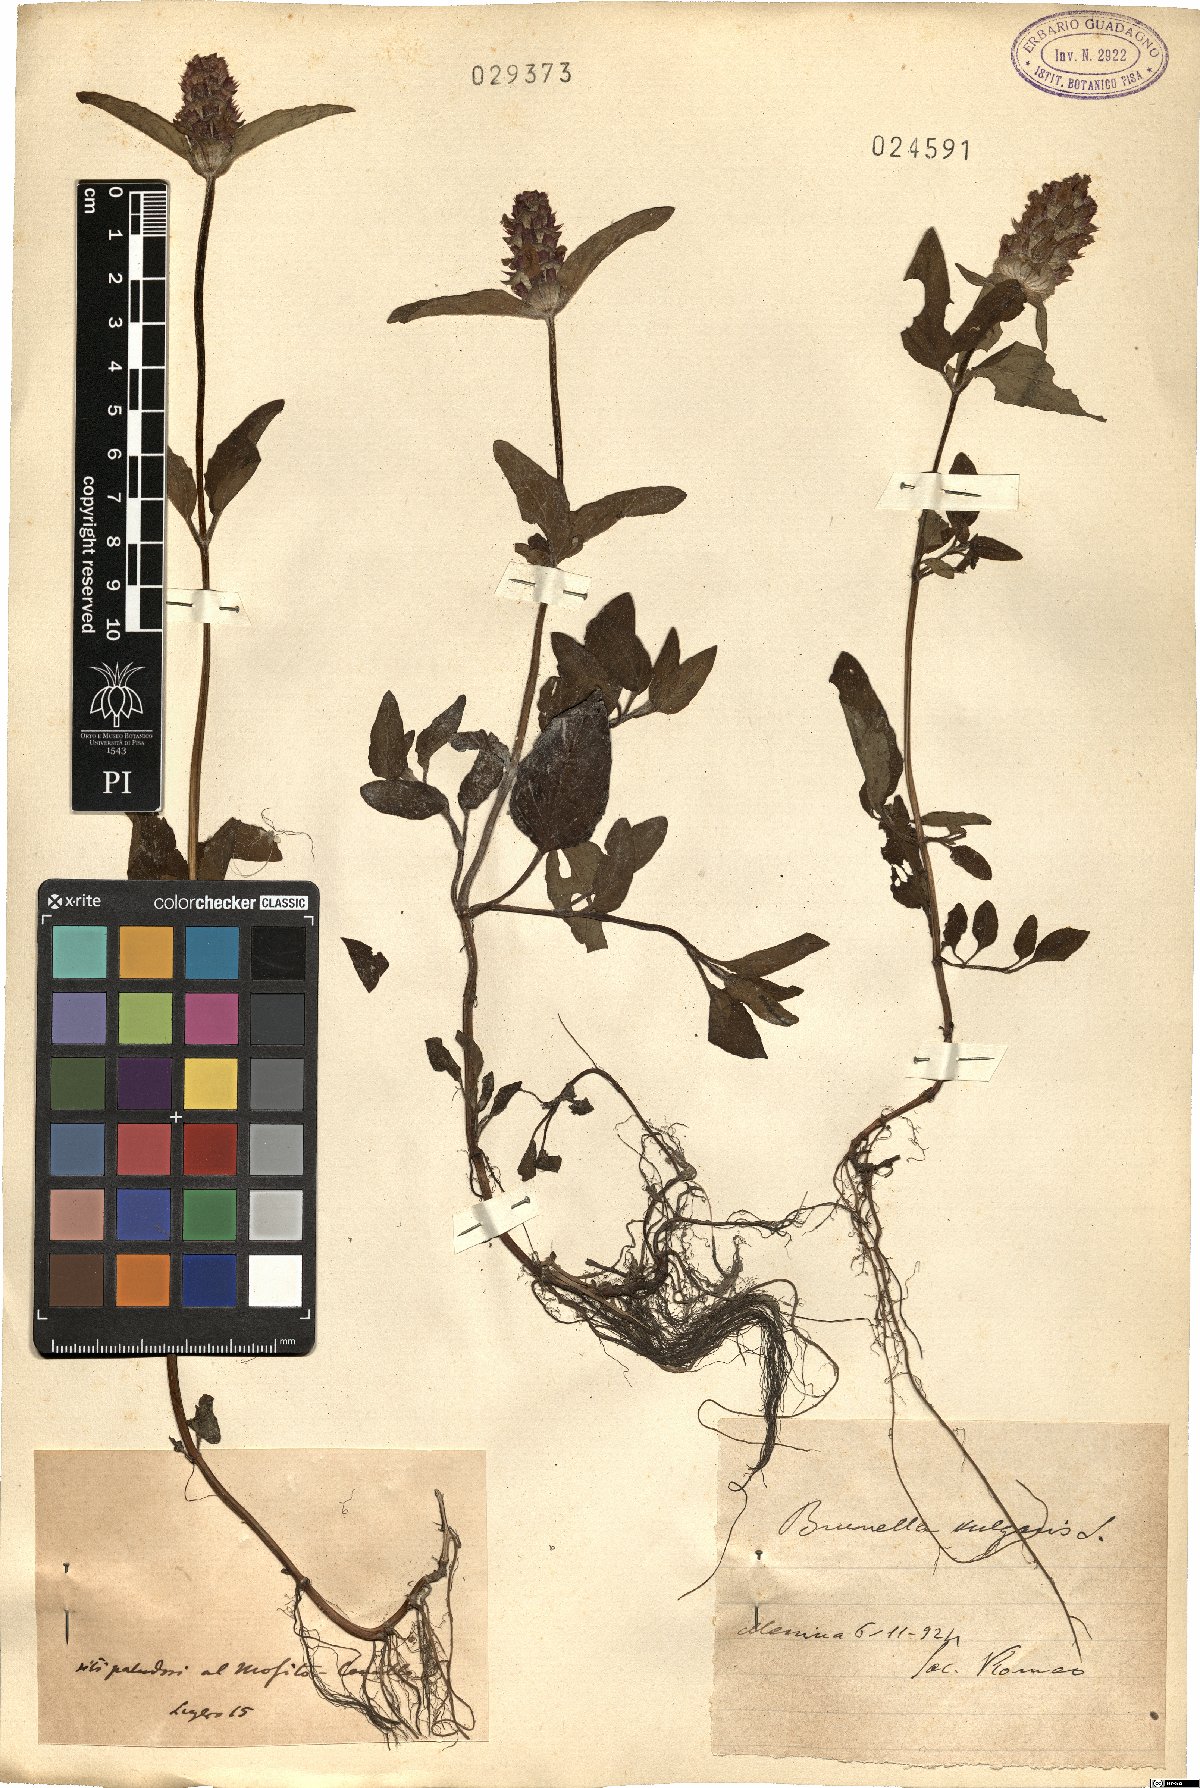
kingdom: Plantae
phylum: Tracheophyta
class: Magnoliopsida
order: Lamiales
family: Lamiaceae
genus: Prunella
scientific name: Prunella
